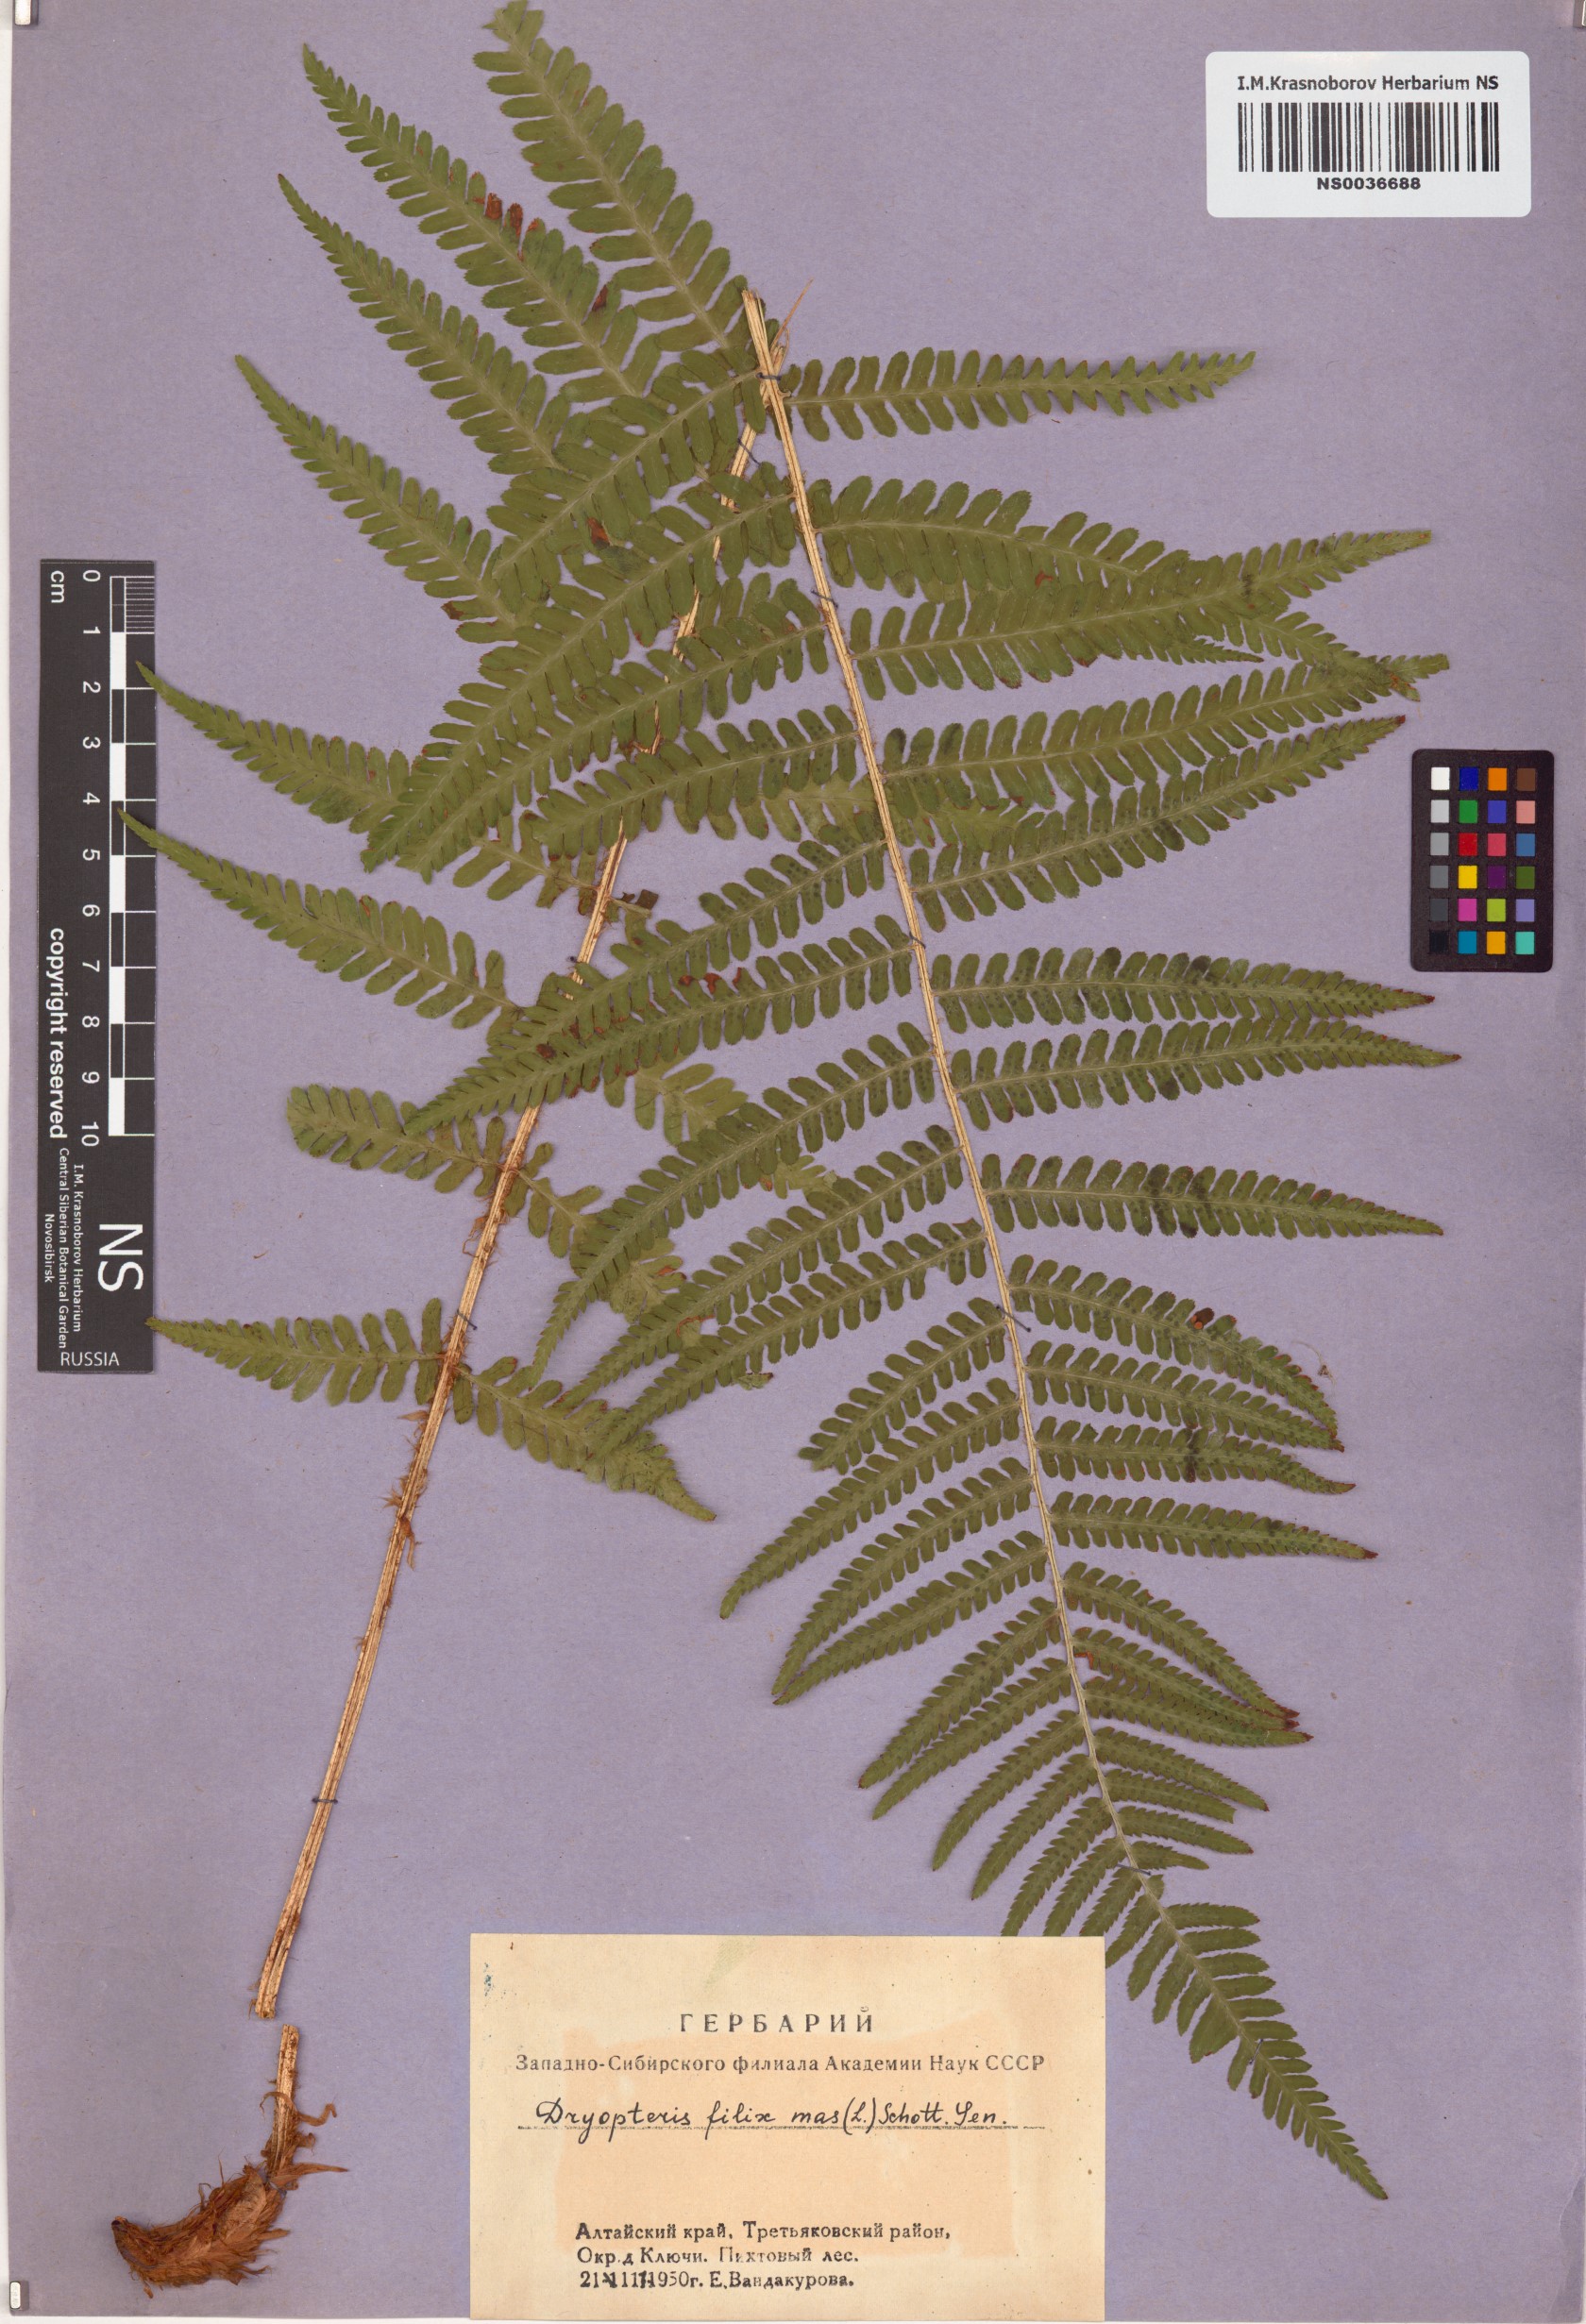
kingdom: Plantae
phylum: Tracheophyta
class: Polypodiopsida
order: Polypodiales
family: Dryopteridaceae
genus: Dryopteris
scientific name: Dryopteris filix-mas
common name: Male fern
